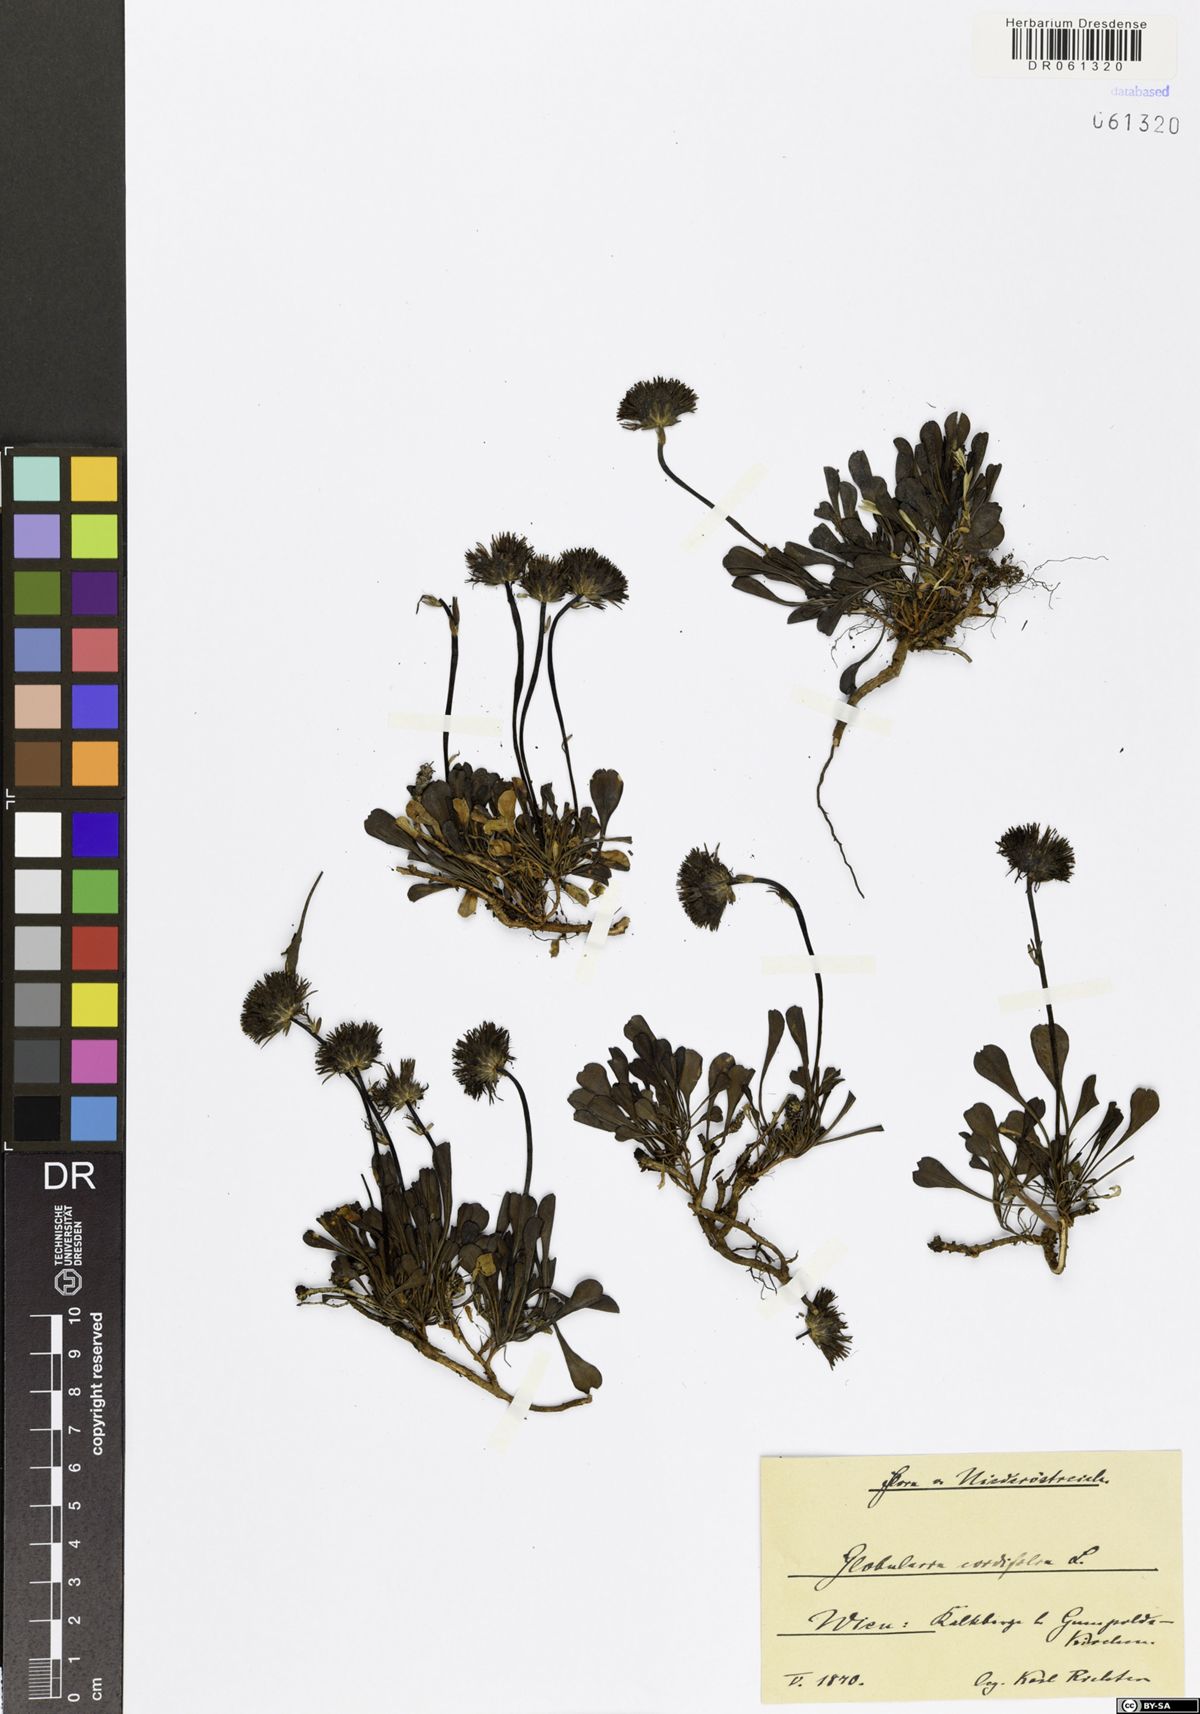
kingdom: Plantae
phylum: Tracheophyta
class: Magnoliopsida
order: Lamiales
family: Plantaginaceae
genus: Globularia
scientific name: Globularia cordifolia
